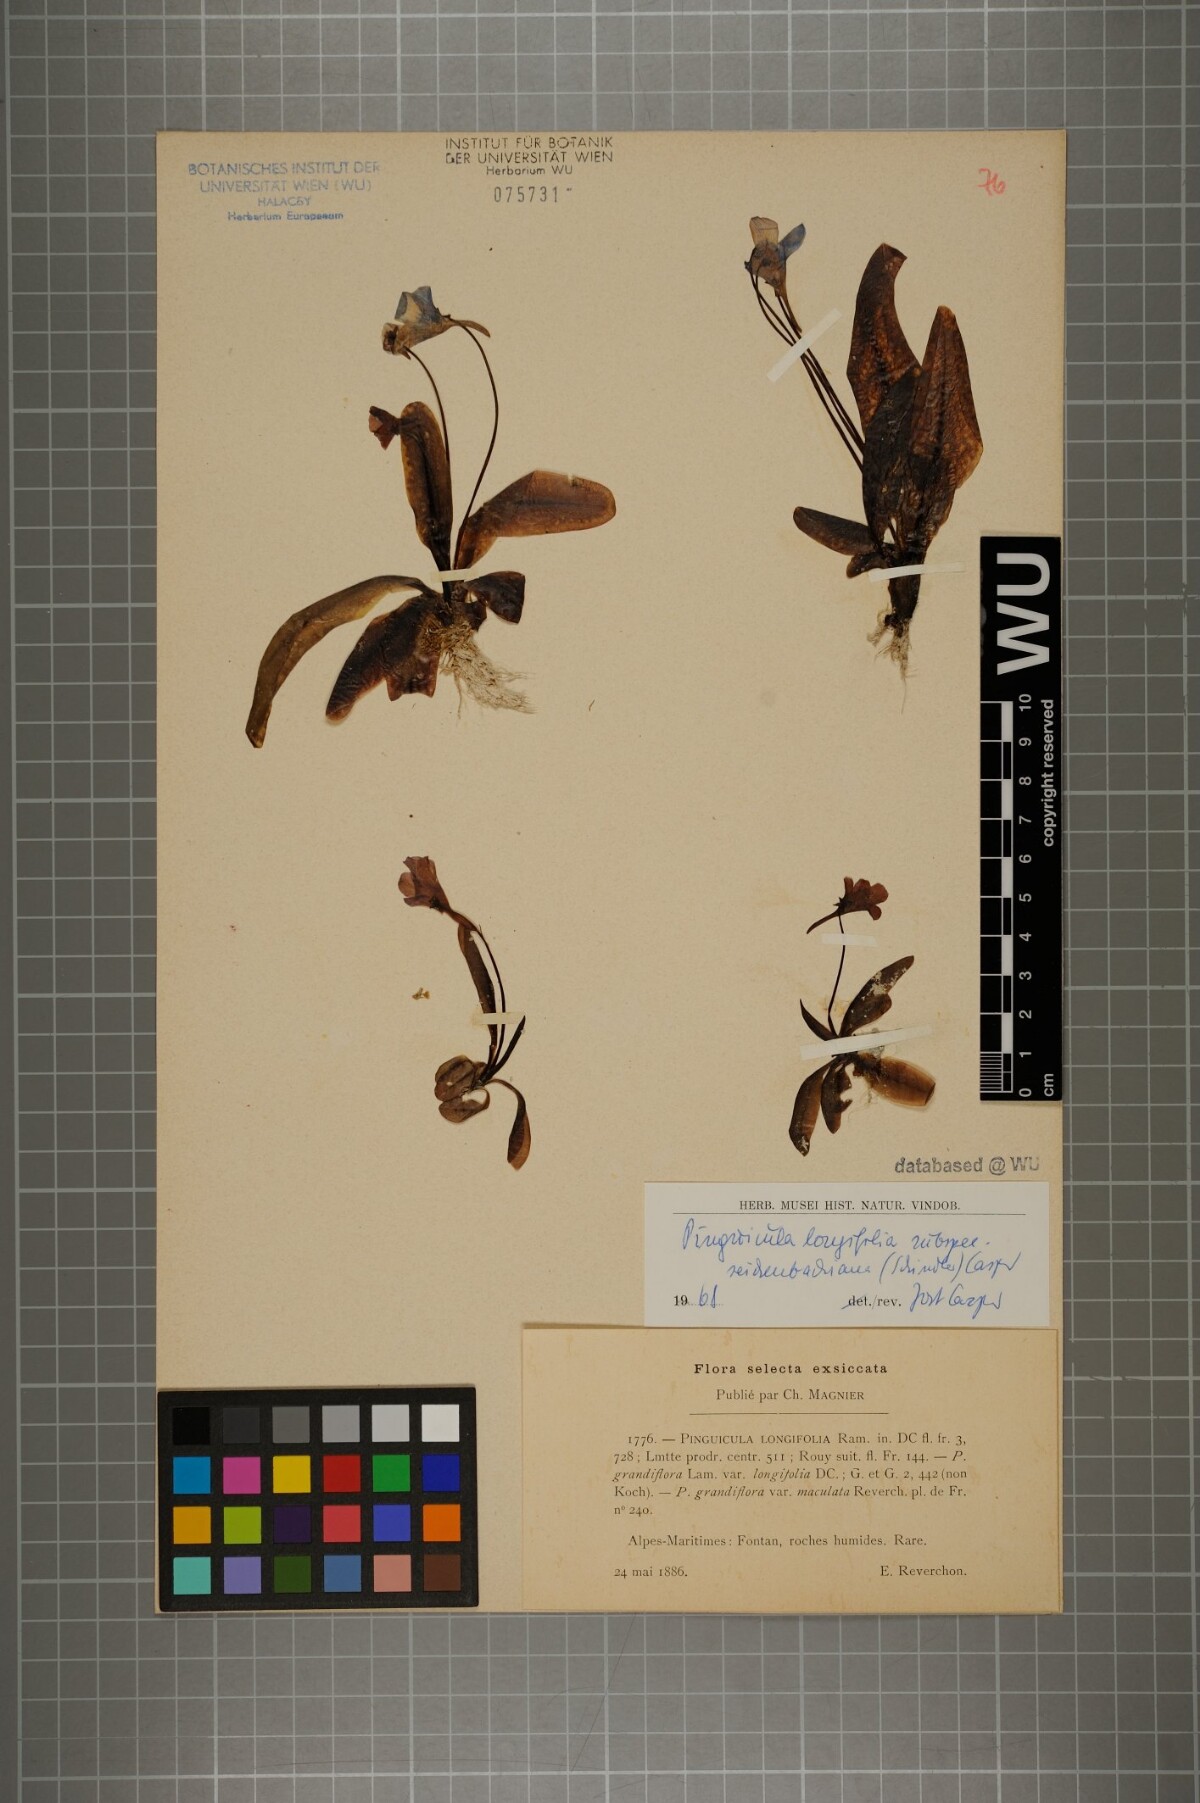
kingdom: Plantae
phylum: Tracheophyta
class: Magnoliopsida
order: Lamiales
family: Lentibulariaceae
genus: Pinguicula
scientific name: Pinguicula longifolia
